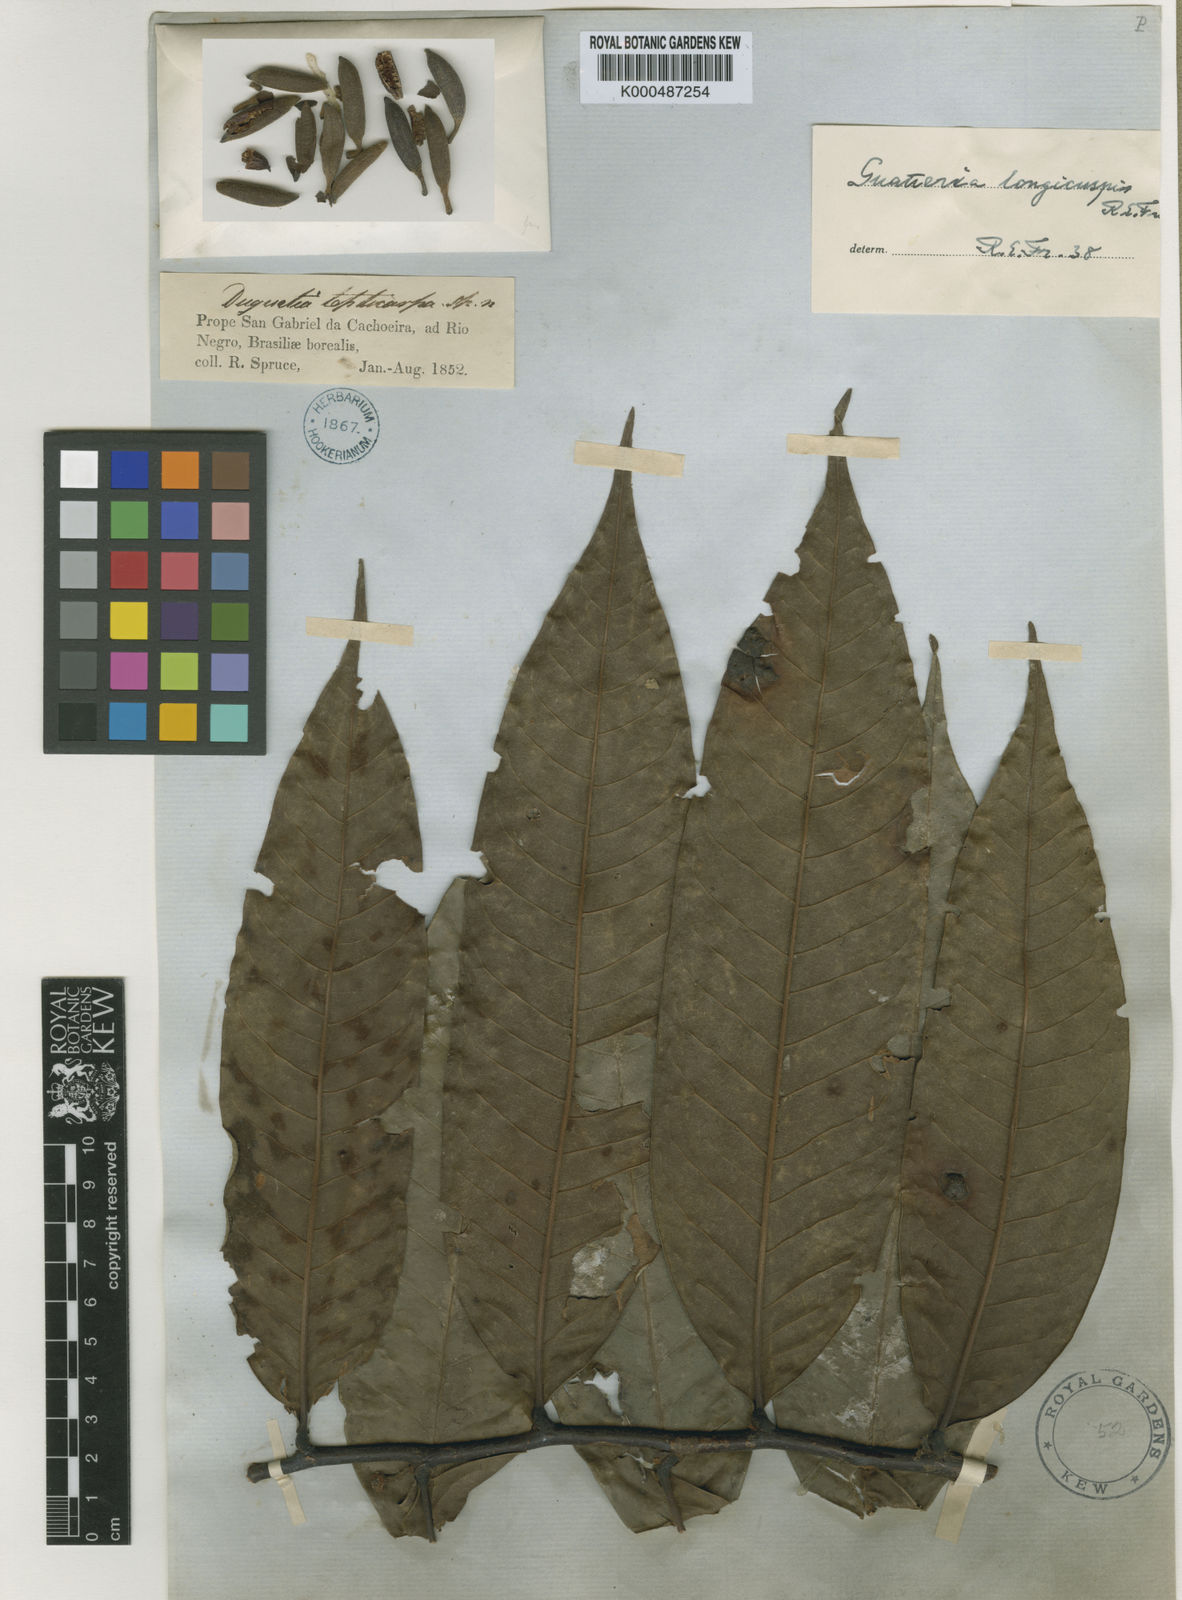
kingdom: Plantae
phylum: Tracheophyta
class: Magnoliopsida
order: Magnoliales
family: Annonaceae
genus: Guatteria
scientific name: Guatteria longicuspis
